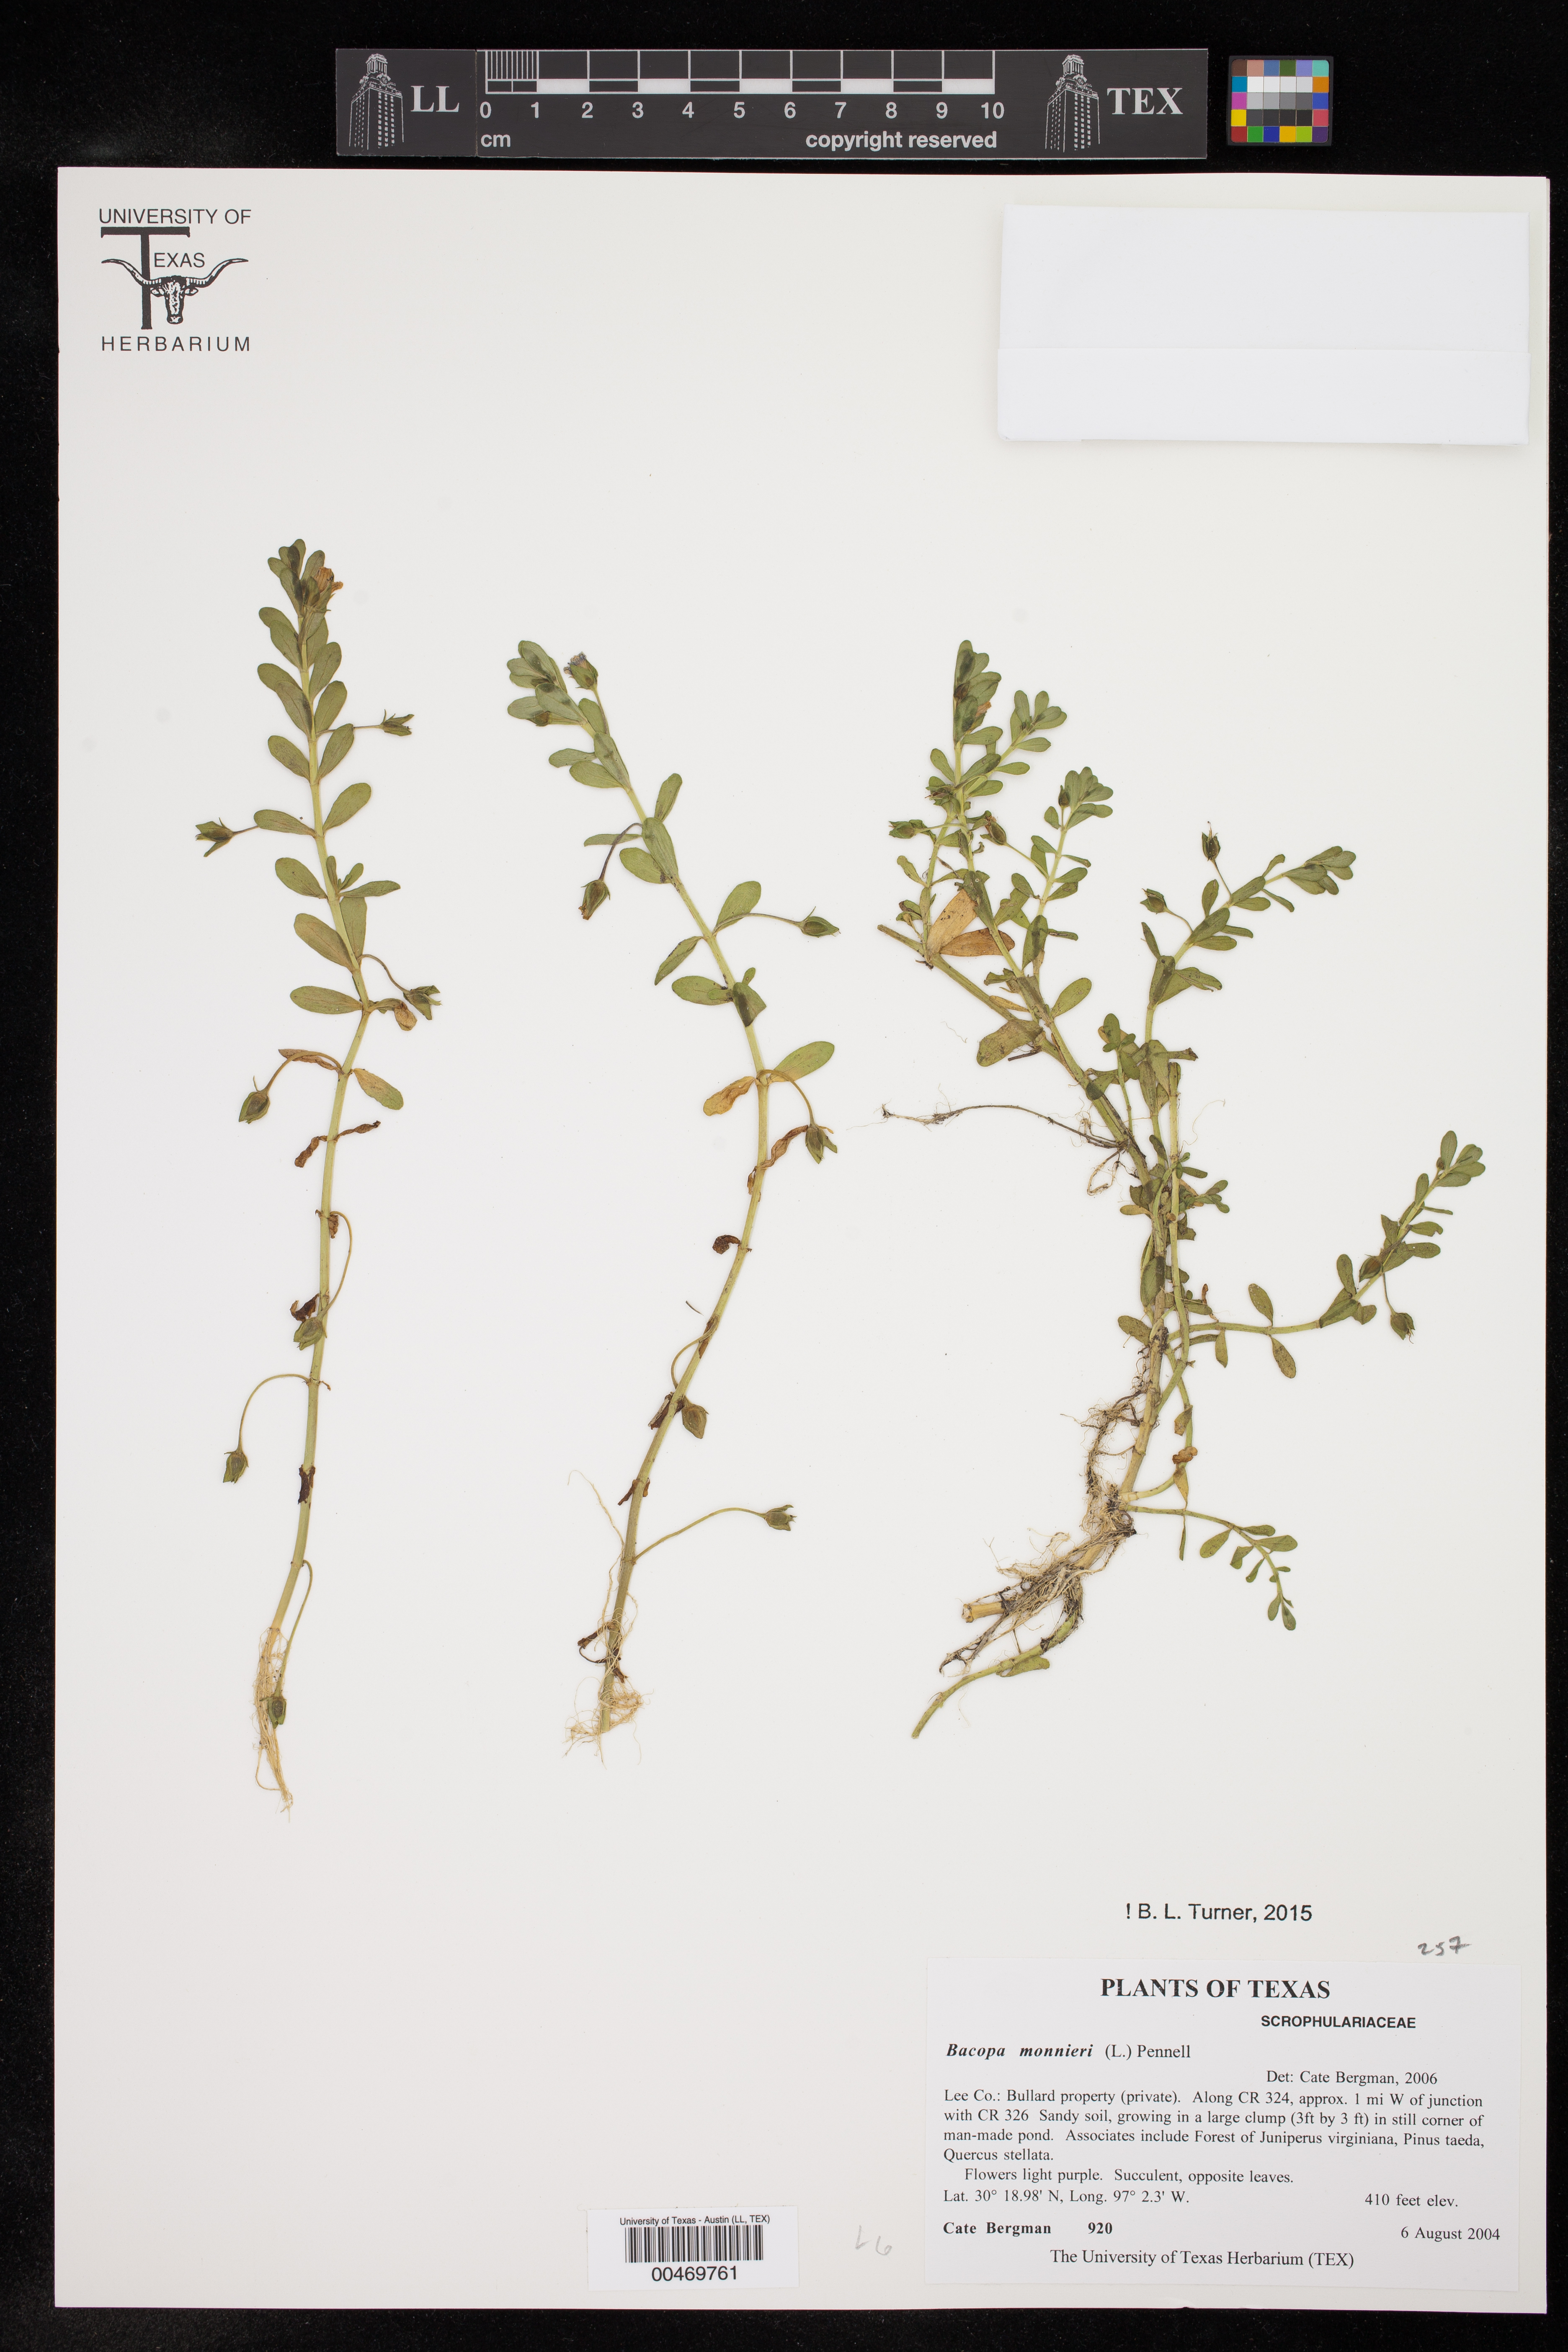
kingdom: Plantae
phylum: Tracheophyta
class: Magnoliopsida
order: Lamiales
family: Plantaginaceae
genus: Bacopa
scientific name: Bacopa monnieri
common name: Indian-pennywort
